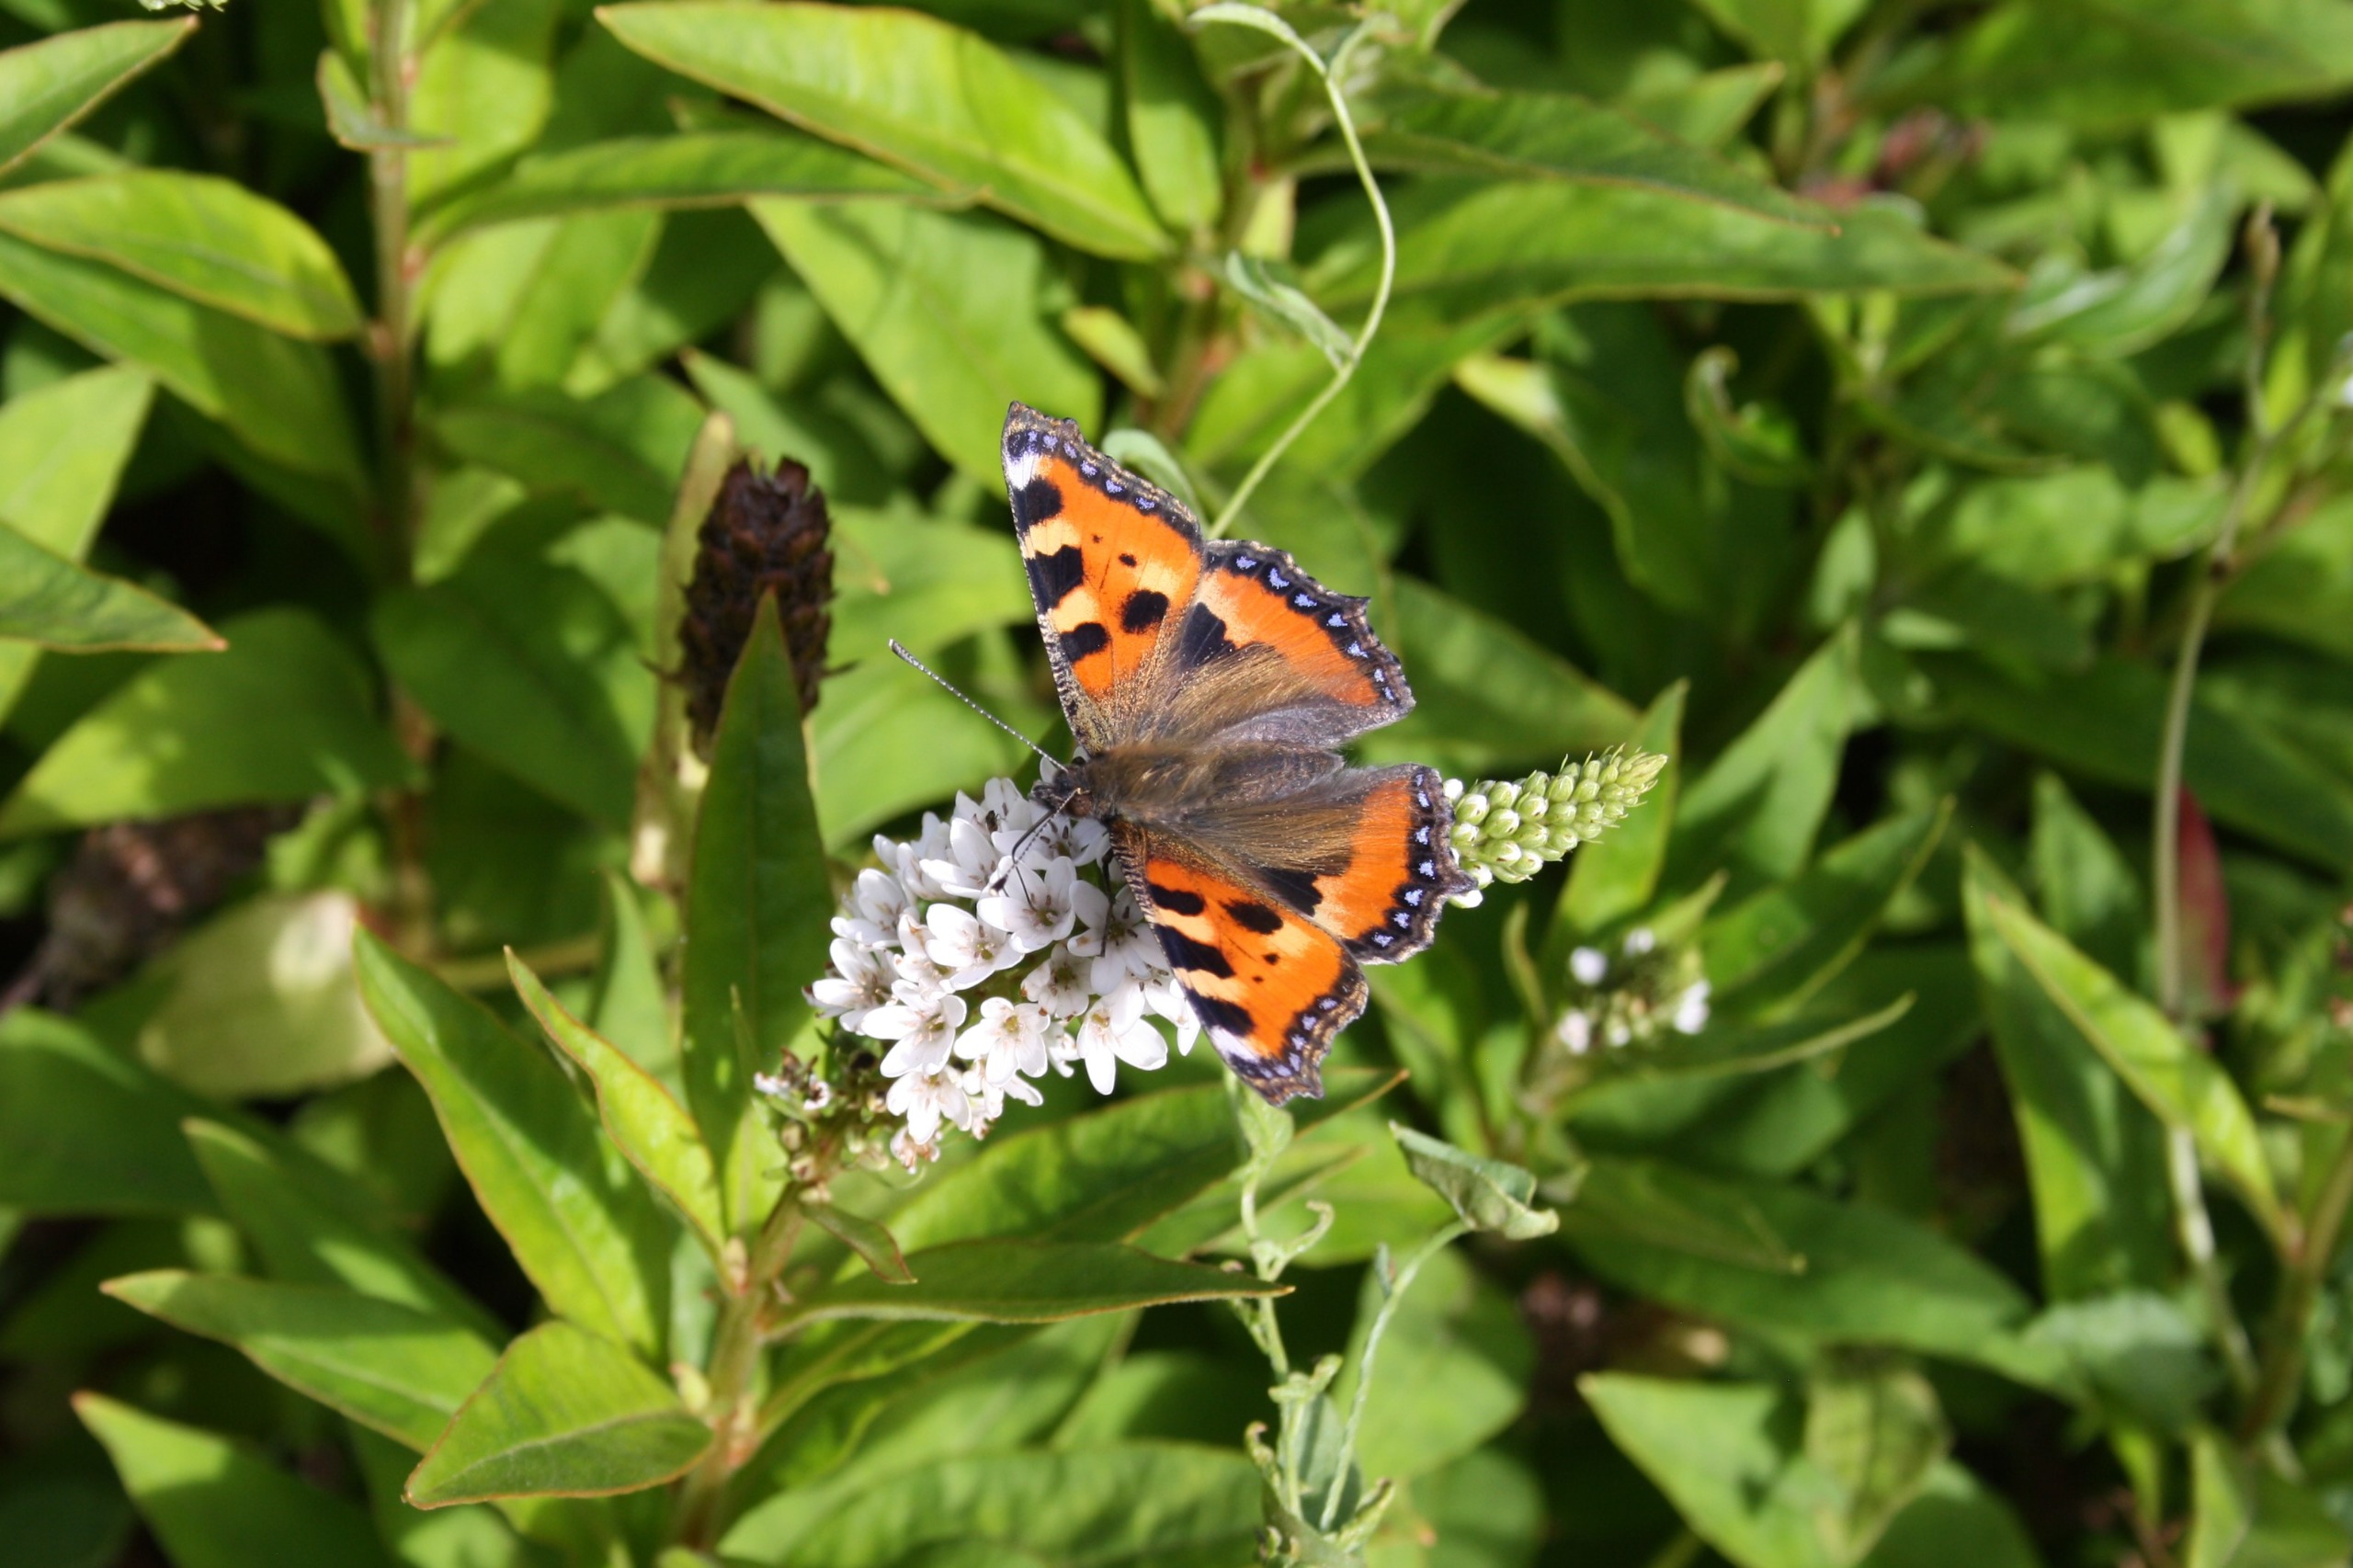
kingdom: Animalia
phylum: Arthropoda
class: Insecta
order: Lepidoptera
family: Nymphalidae
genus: Aglais
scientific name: Aglais urticae
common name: Nældens takvinge
